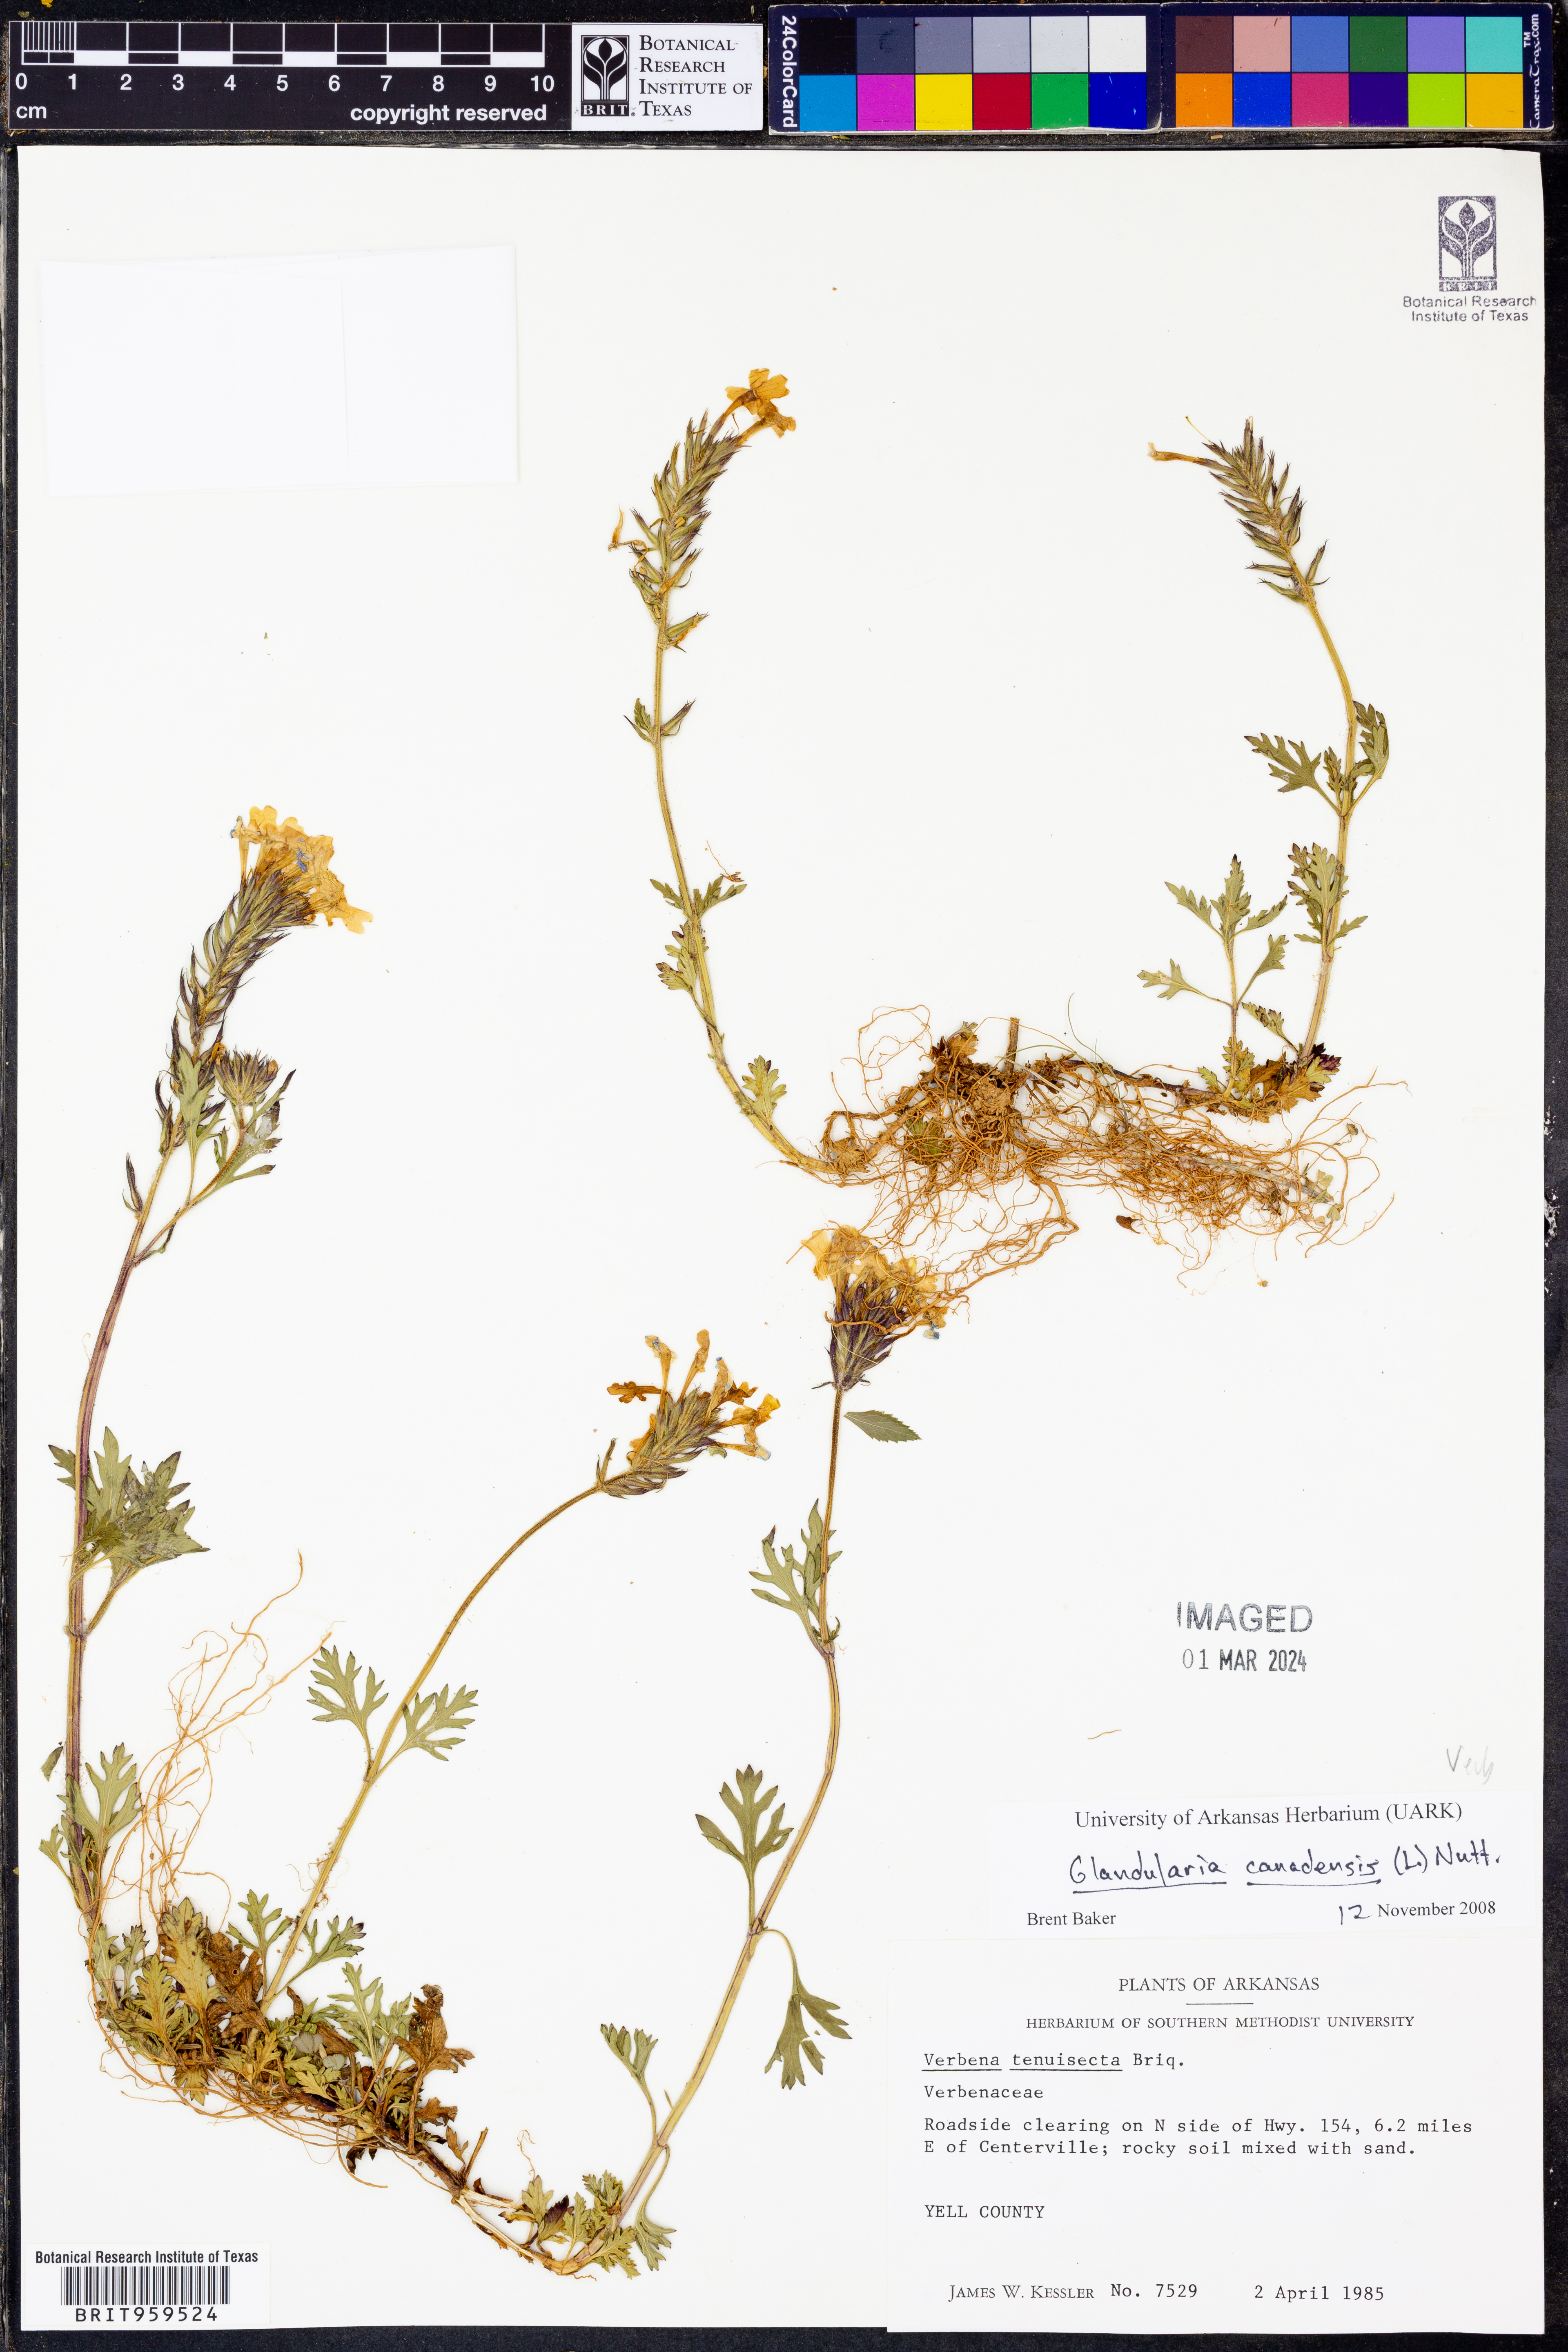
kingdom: Plantae
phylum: Tracheophyta
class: Magnoliopsida
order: Lamiales
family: Verbenaceae
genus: Verbena
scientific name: Verbena canadensis
